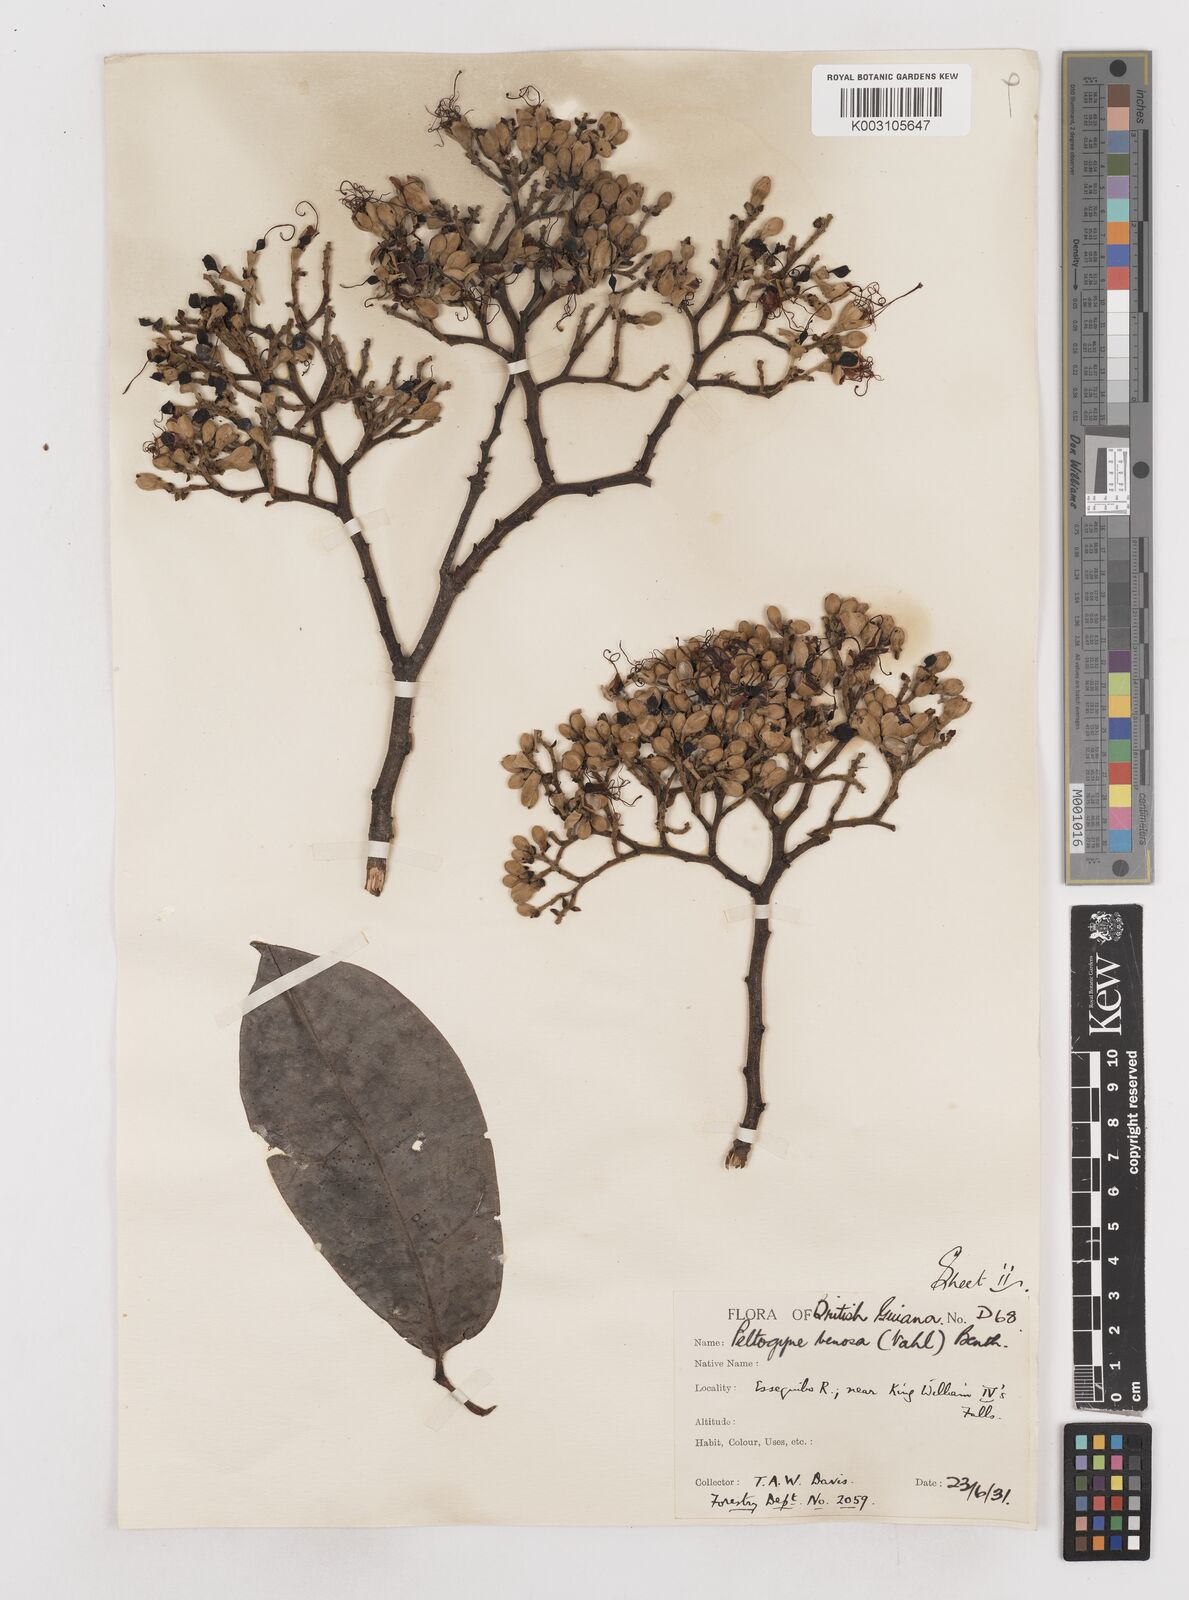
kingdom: Plantae
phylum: Tracheophyta
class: Magnoliopsida
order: Fabales
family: Fabaceae
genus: Peltogyne
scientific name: Peltogyne venosa
